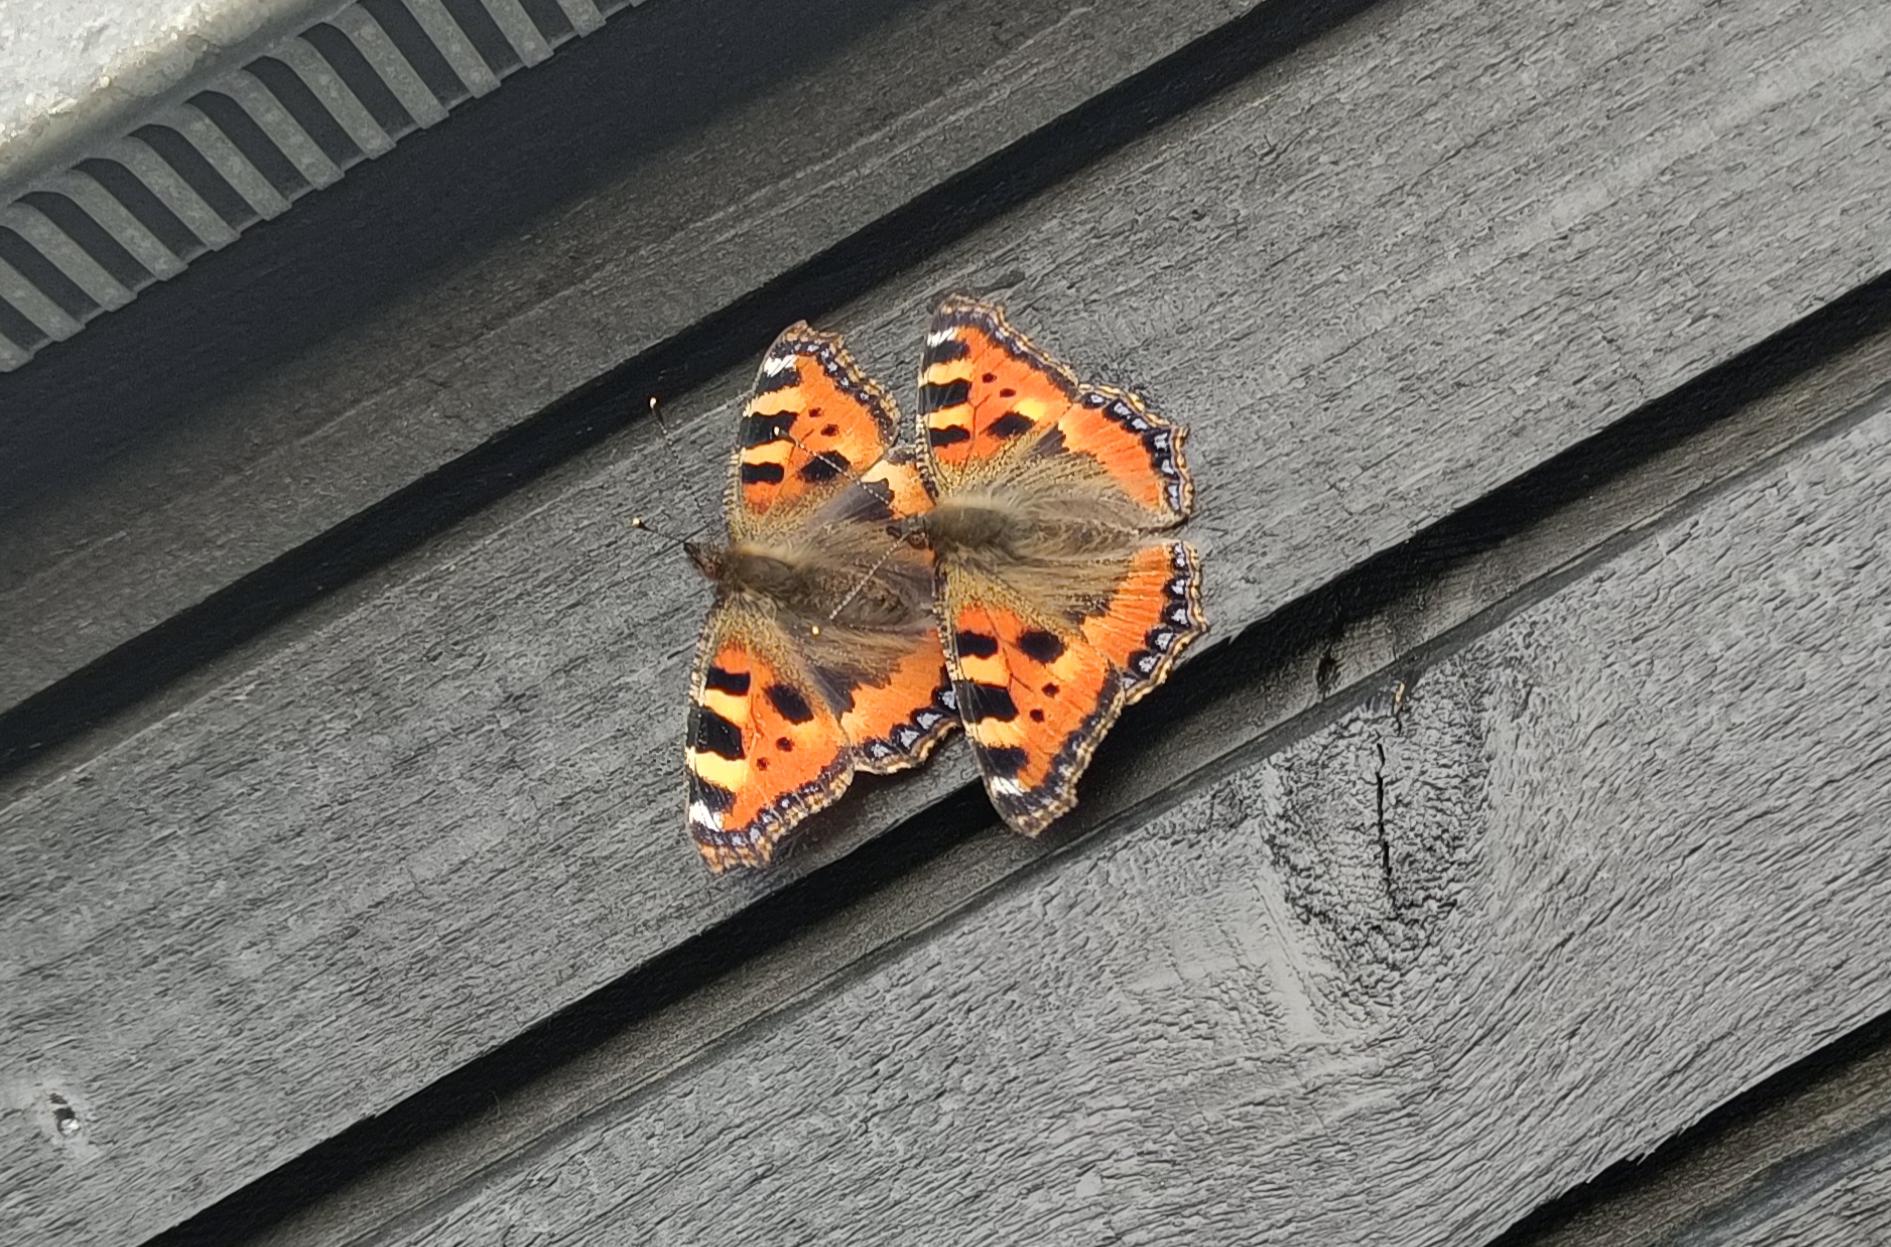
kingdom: Animalia
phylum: Arthropoda
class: Insecta
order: Lepidoptera
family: Nymphalidae
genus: Aglais
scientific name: Aglais urticae
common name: Nældens takvinge
